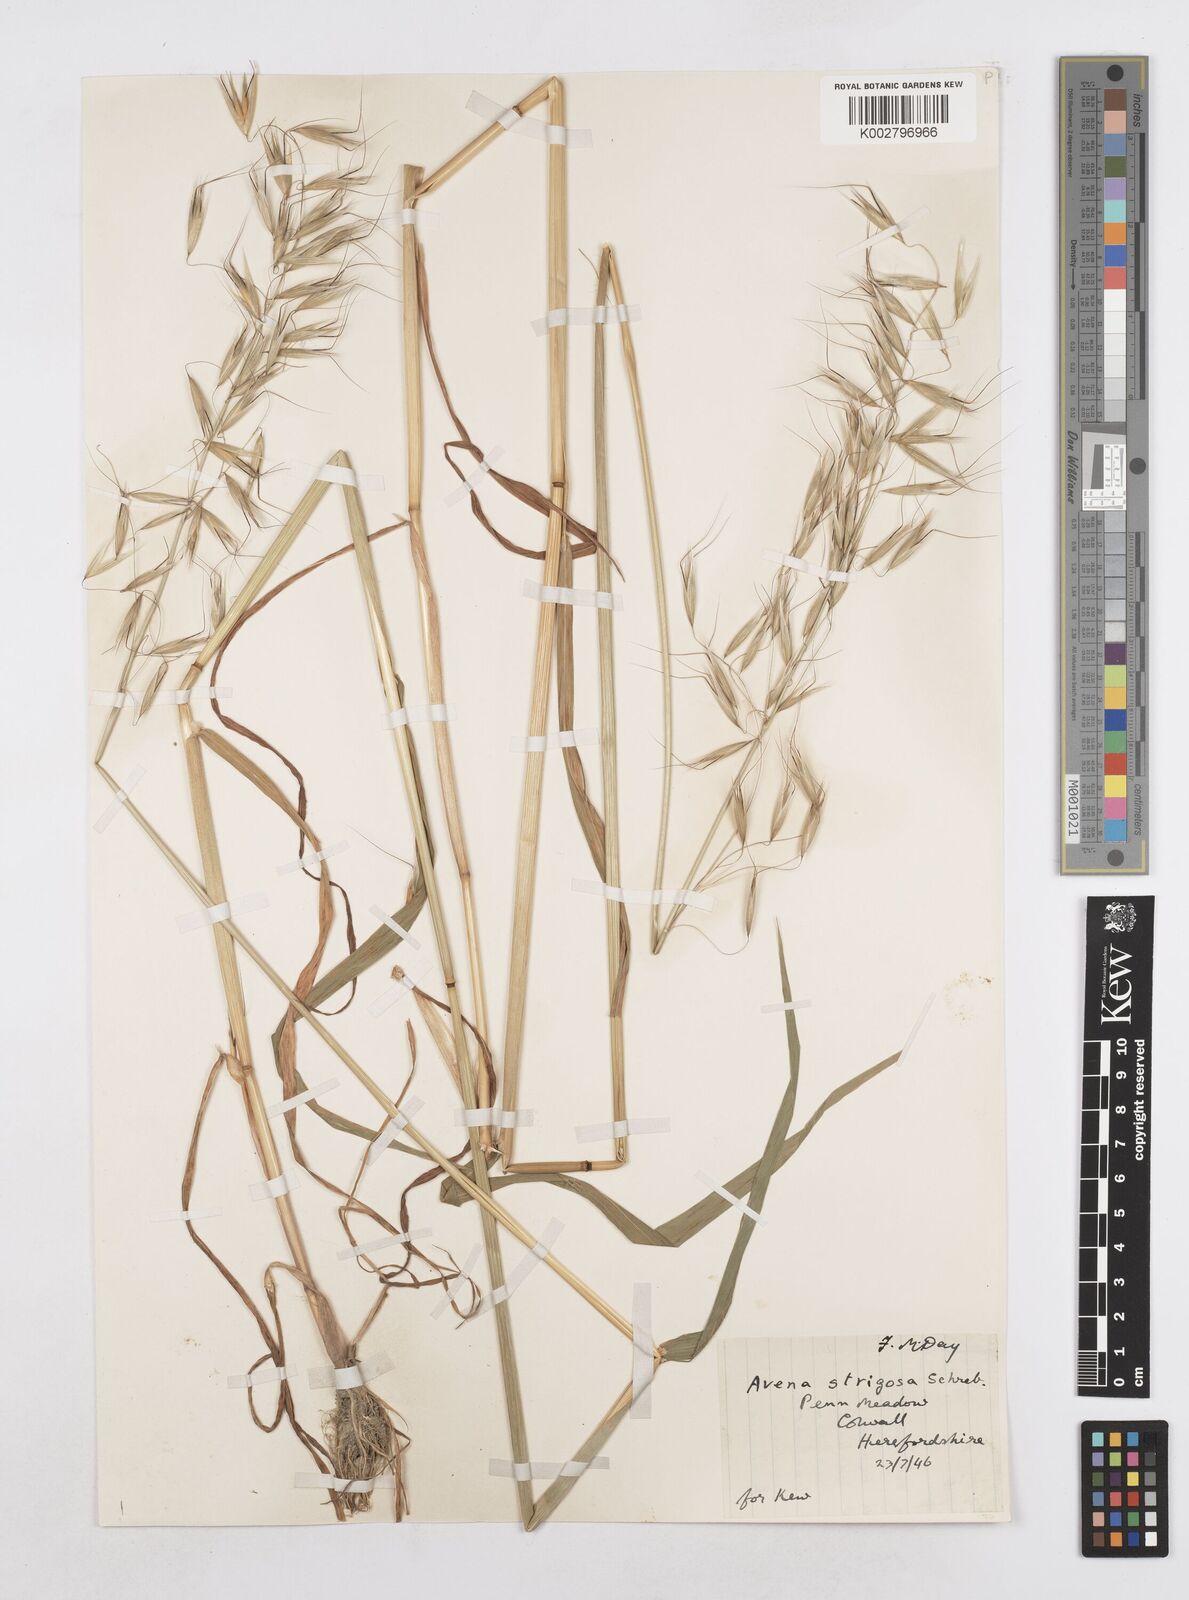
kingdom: Plantae
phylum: Tracheophyta
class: Liliopsida
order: Poales
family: Poaceae
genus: Avena
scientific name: Avena strigosa
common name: Bristle oat
